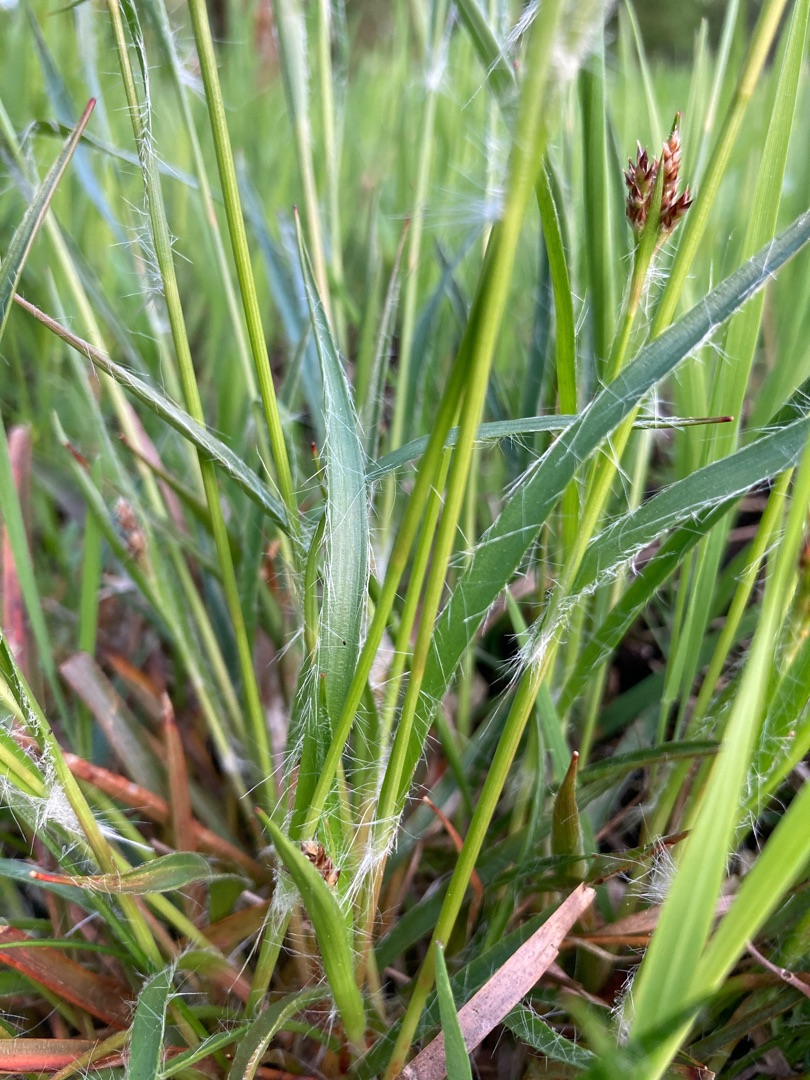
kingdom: Plantae
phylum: Tracheophyta
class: Liliopsida
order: Poales
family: Juncaceae
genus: Luzula
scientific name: Luzula multiflora
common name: Mangeblomstret frytle
